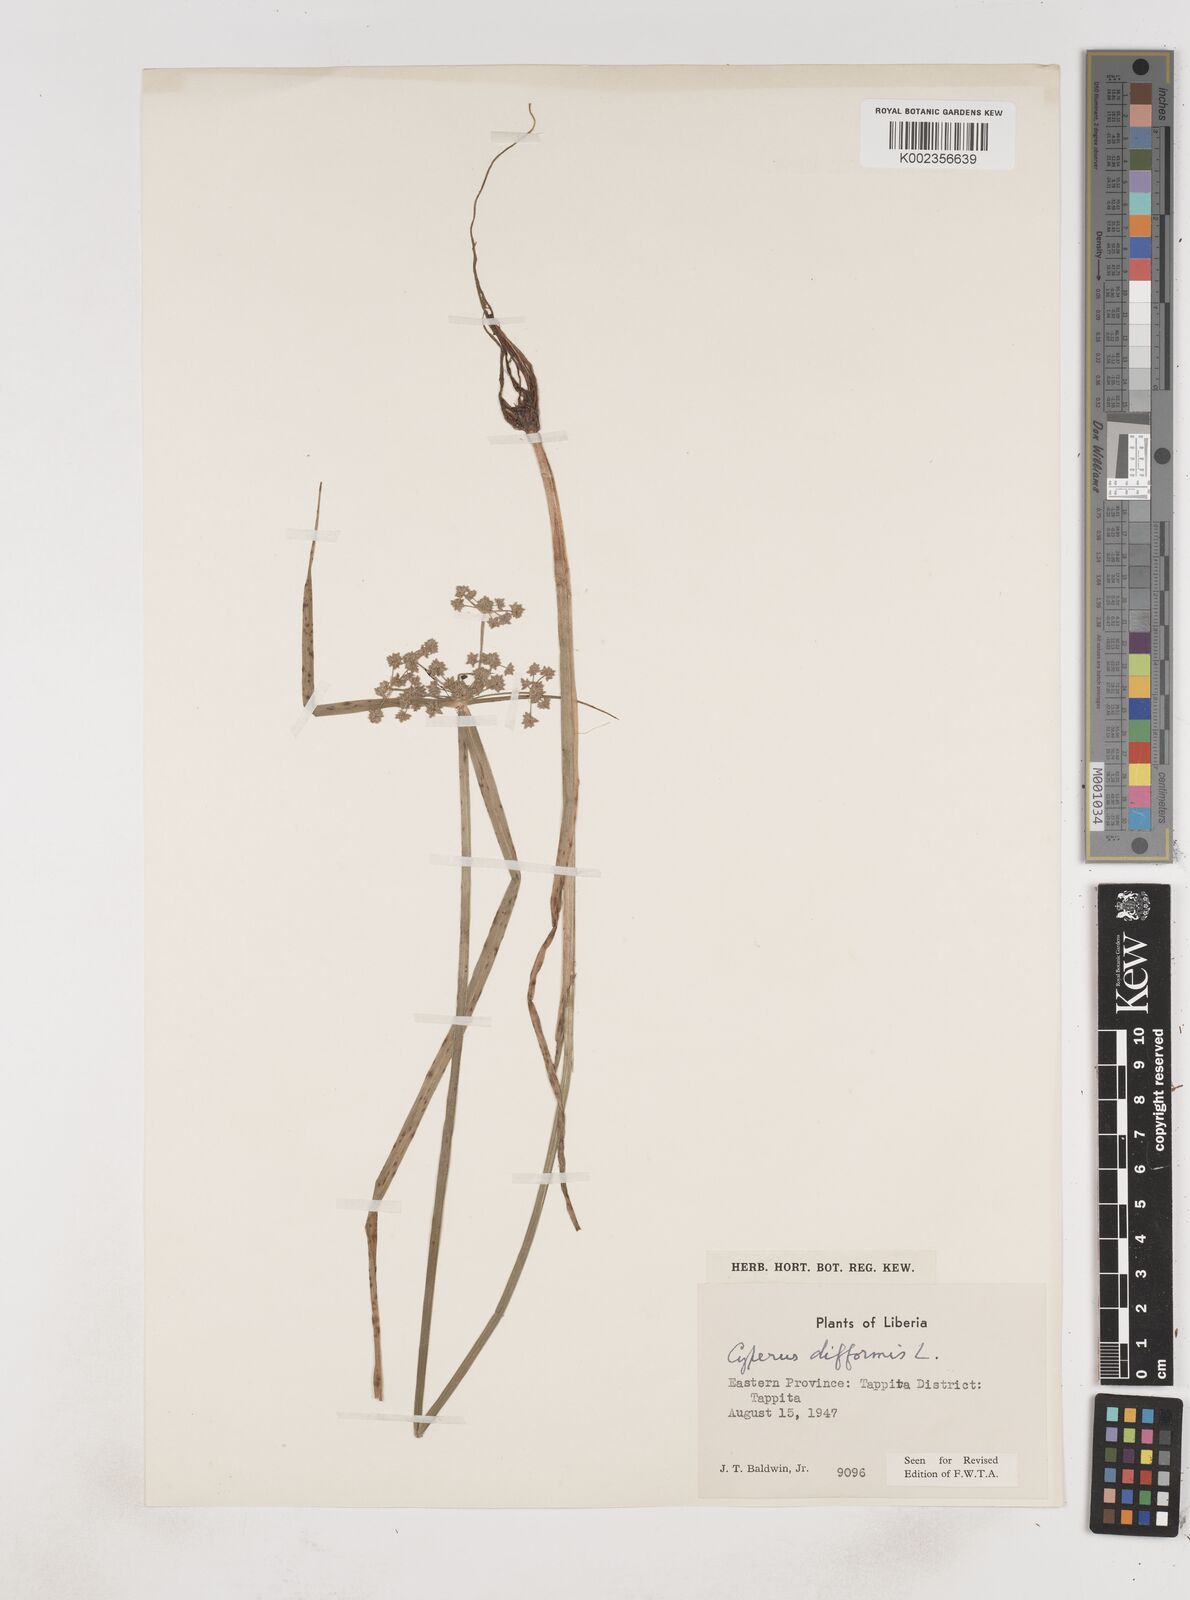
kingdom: Plantae
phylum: Tracheophyta
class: Liliopsida
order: Poales
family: Cyperaceae
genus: Cyperus
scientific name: Cyperus difformis
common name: Variable flatsedge
